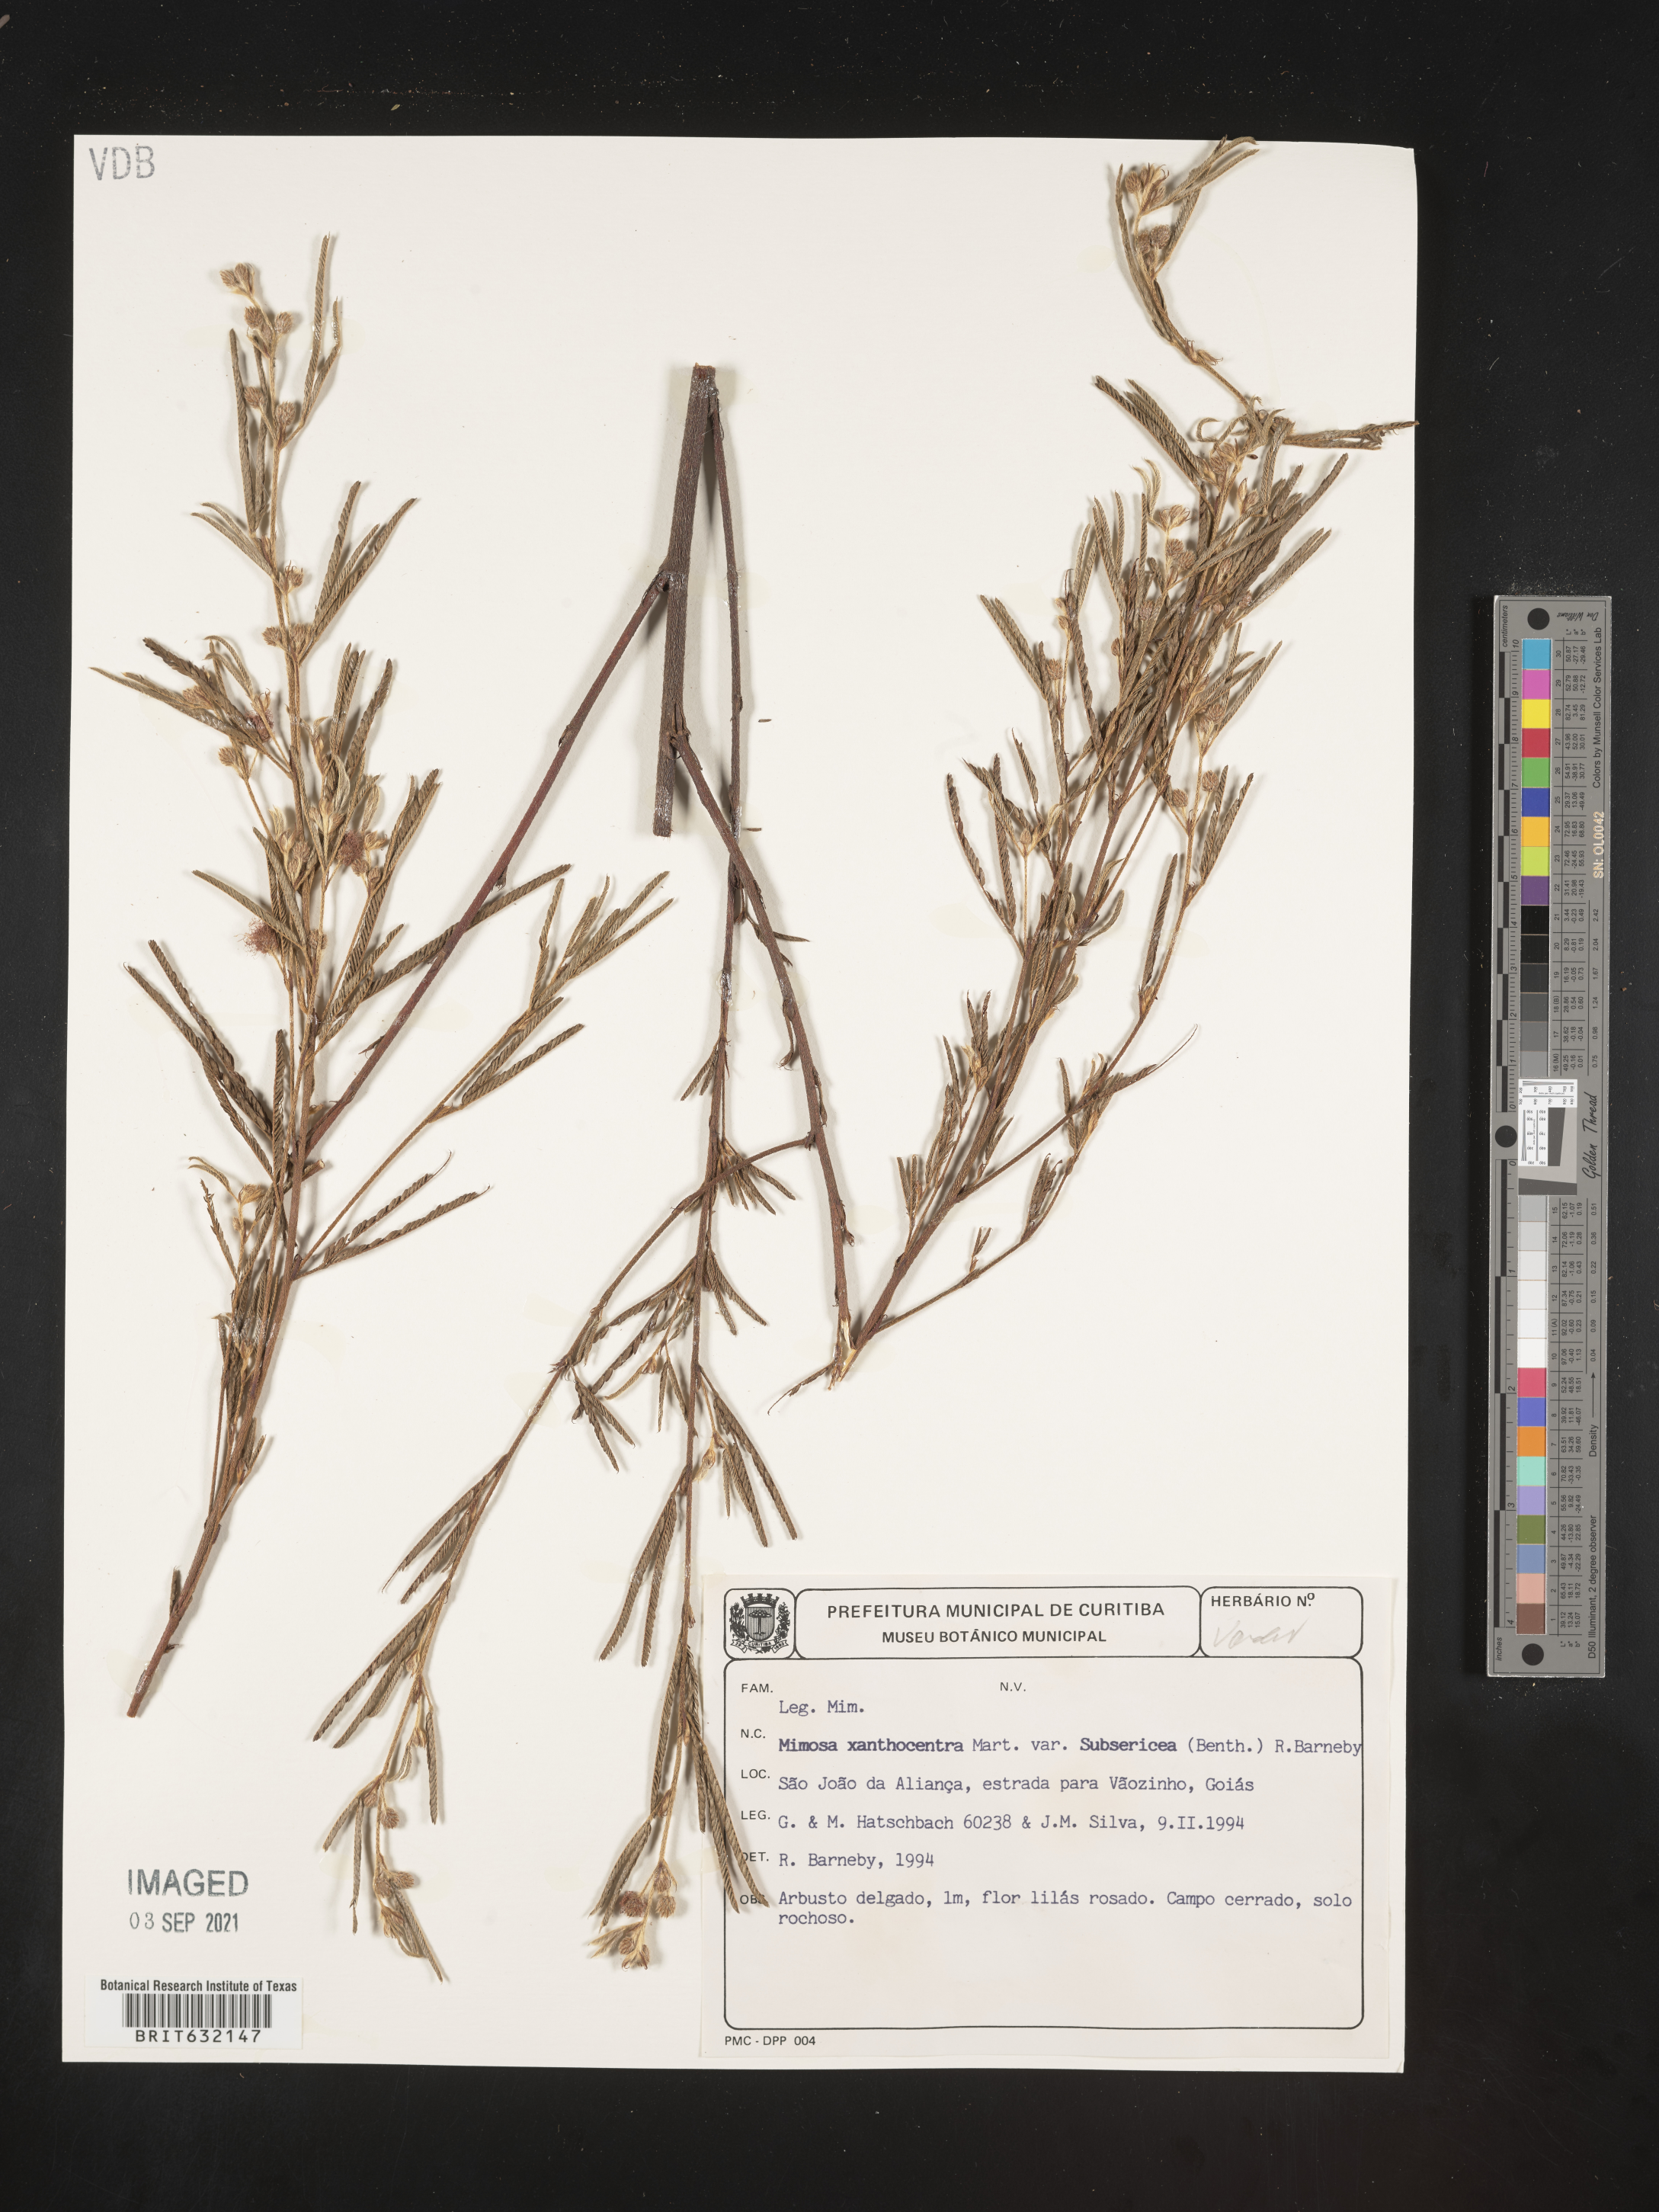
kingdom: Plantae
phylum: Tracheophyta
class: Magnoliopsida
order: Fabales
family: Fabaceae
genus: Mimosa
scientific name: Mimosa
